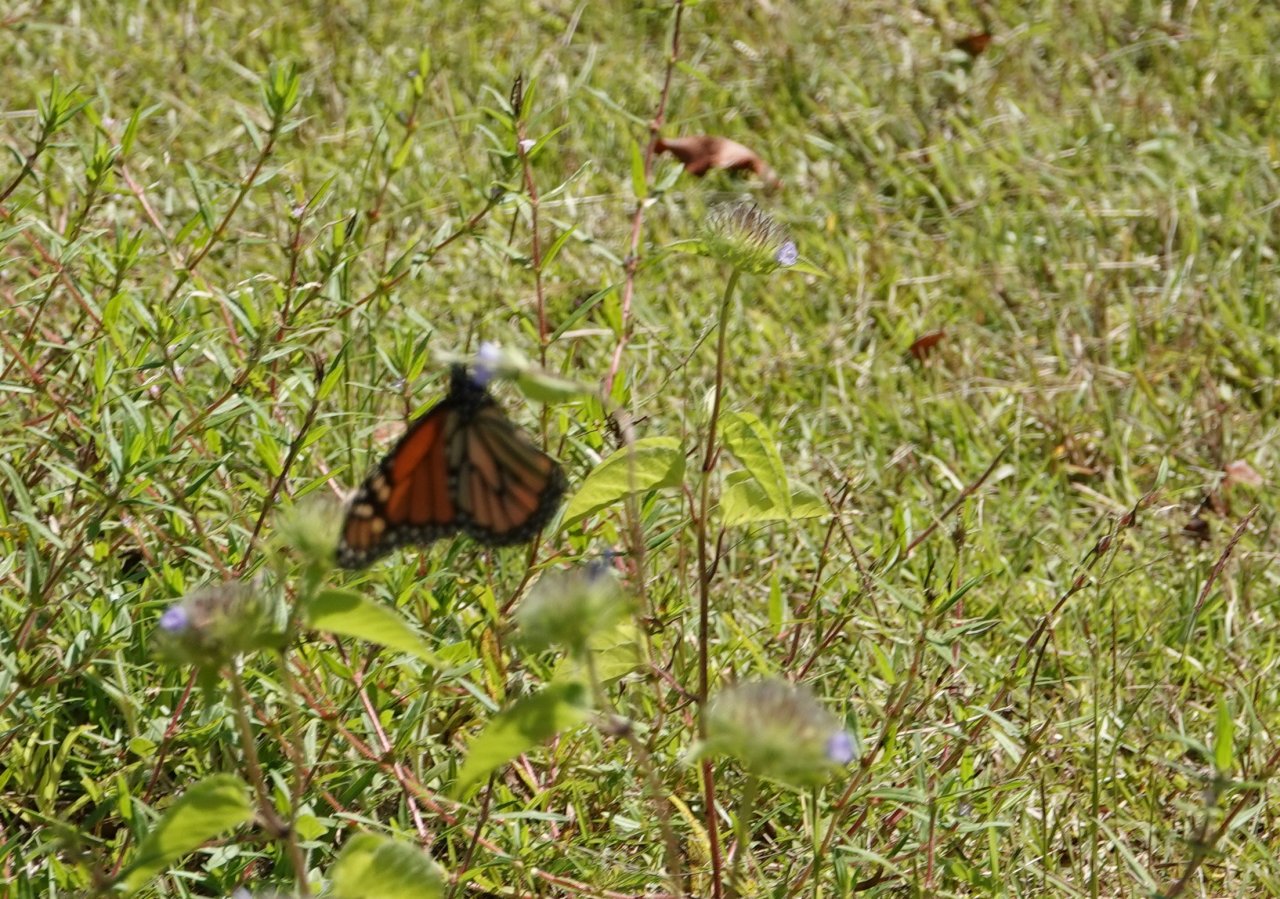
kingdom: Animalia
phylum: Arthropoda
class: Insecta
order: Lepidoptera
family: Nymphalidae
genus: Danaus
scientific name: Danaus plexippus
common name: Monarch
